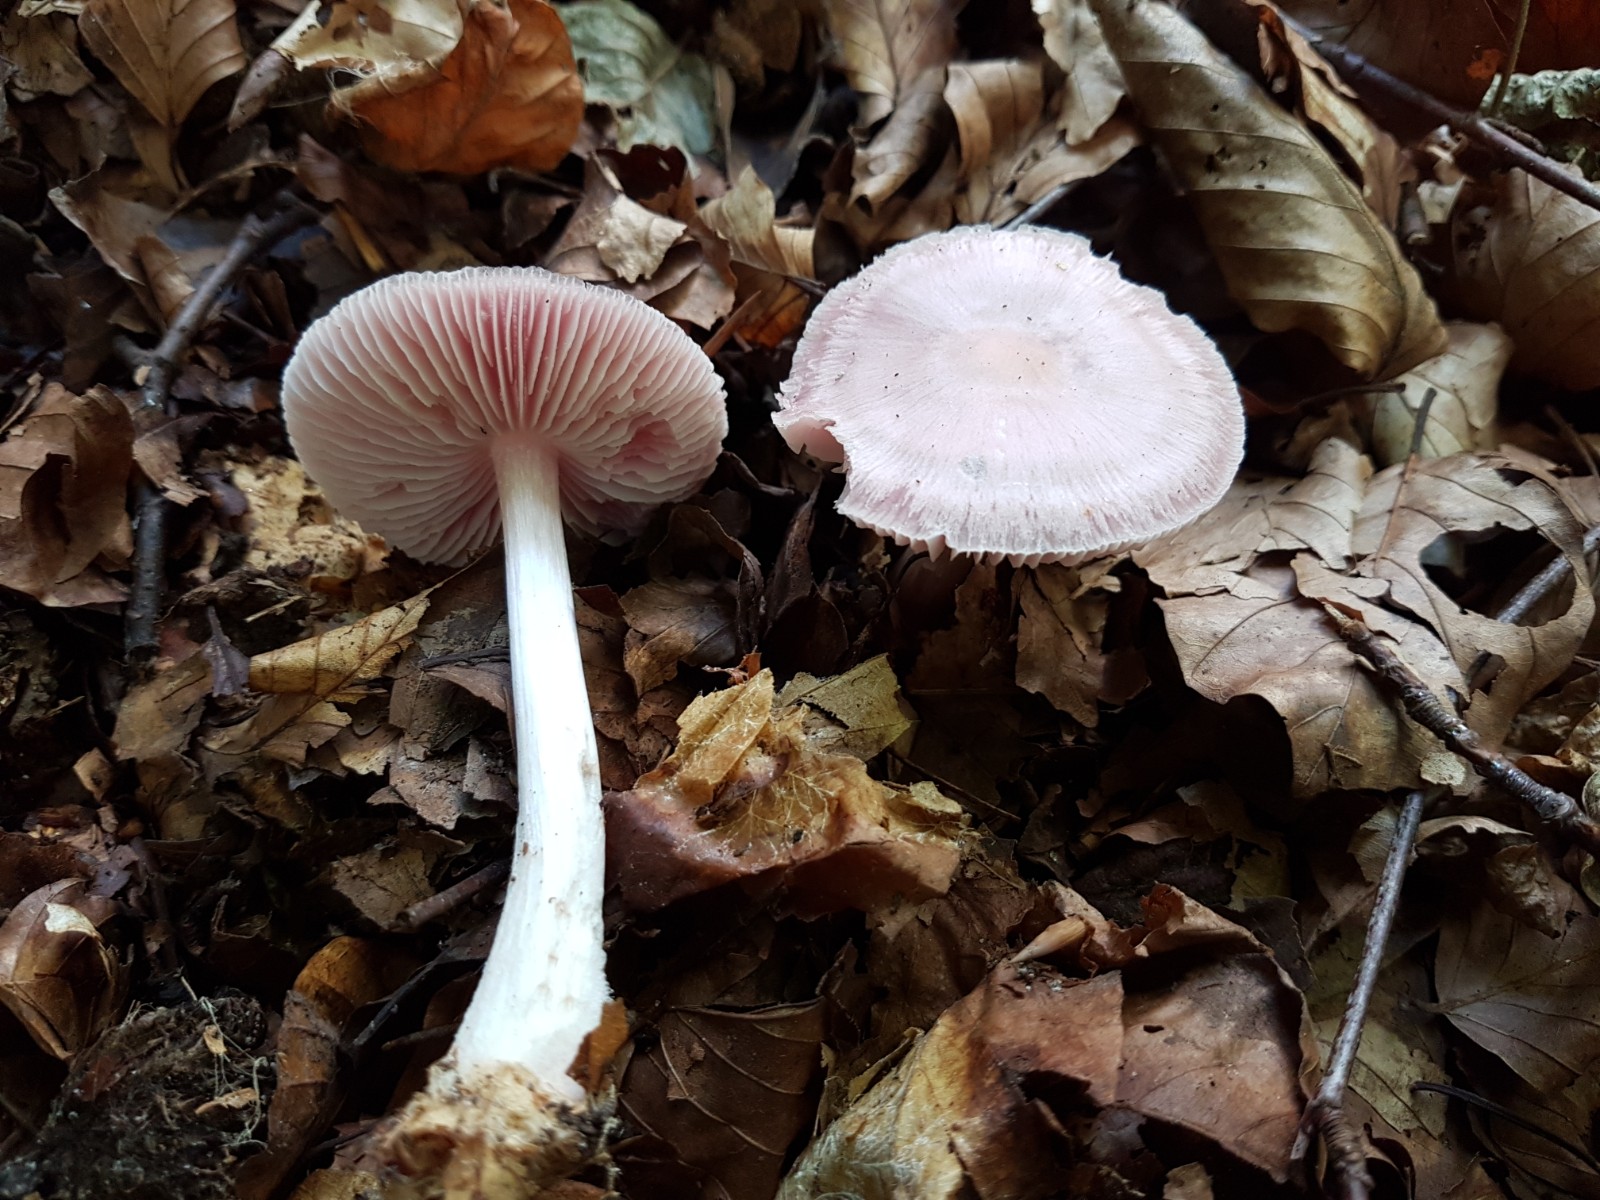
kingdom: Fungi
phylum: Basidiomycota
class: Agaricomycetes
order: Agaricales
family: Mycenaceae
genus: Mycena
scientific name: Mycena rosea
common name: rosa huesvamp
